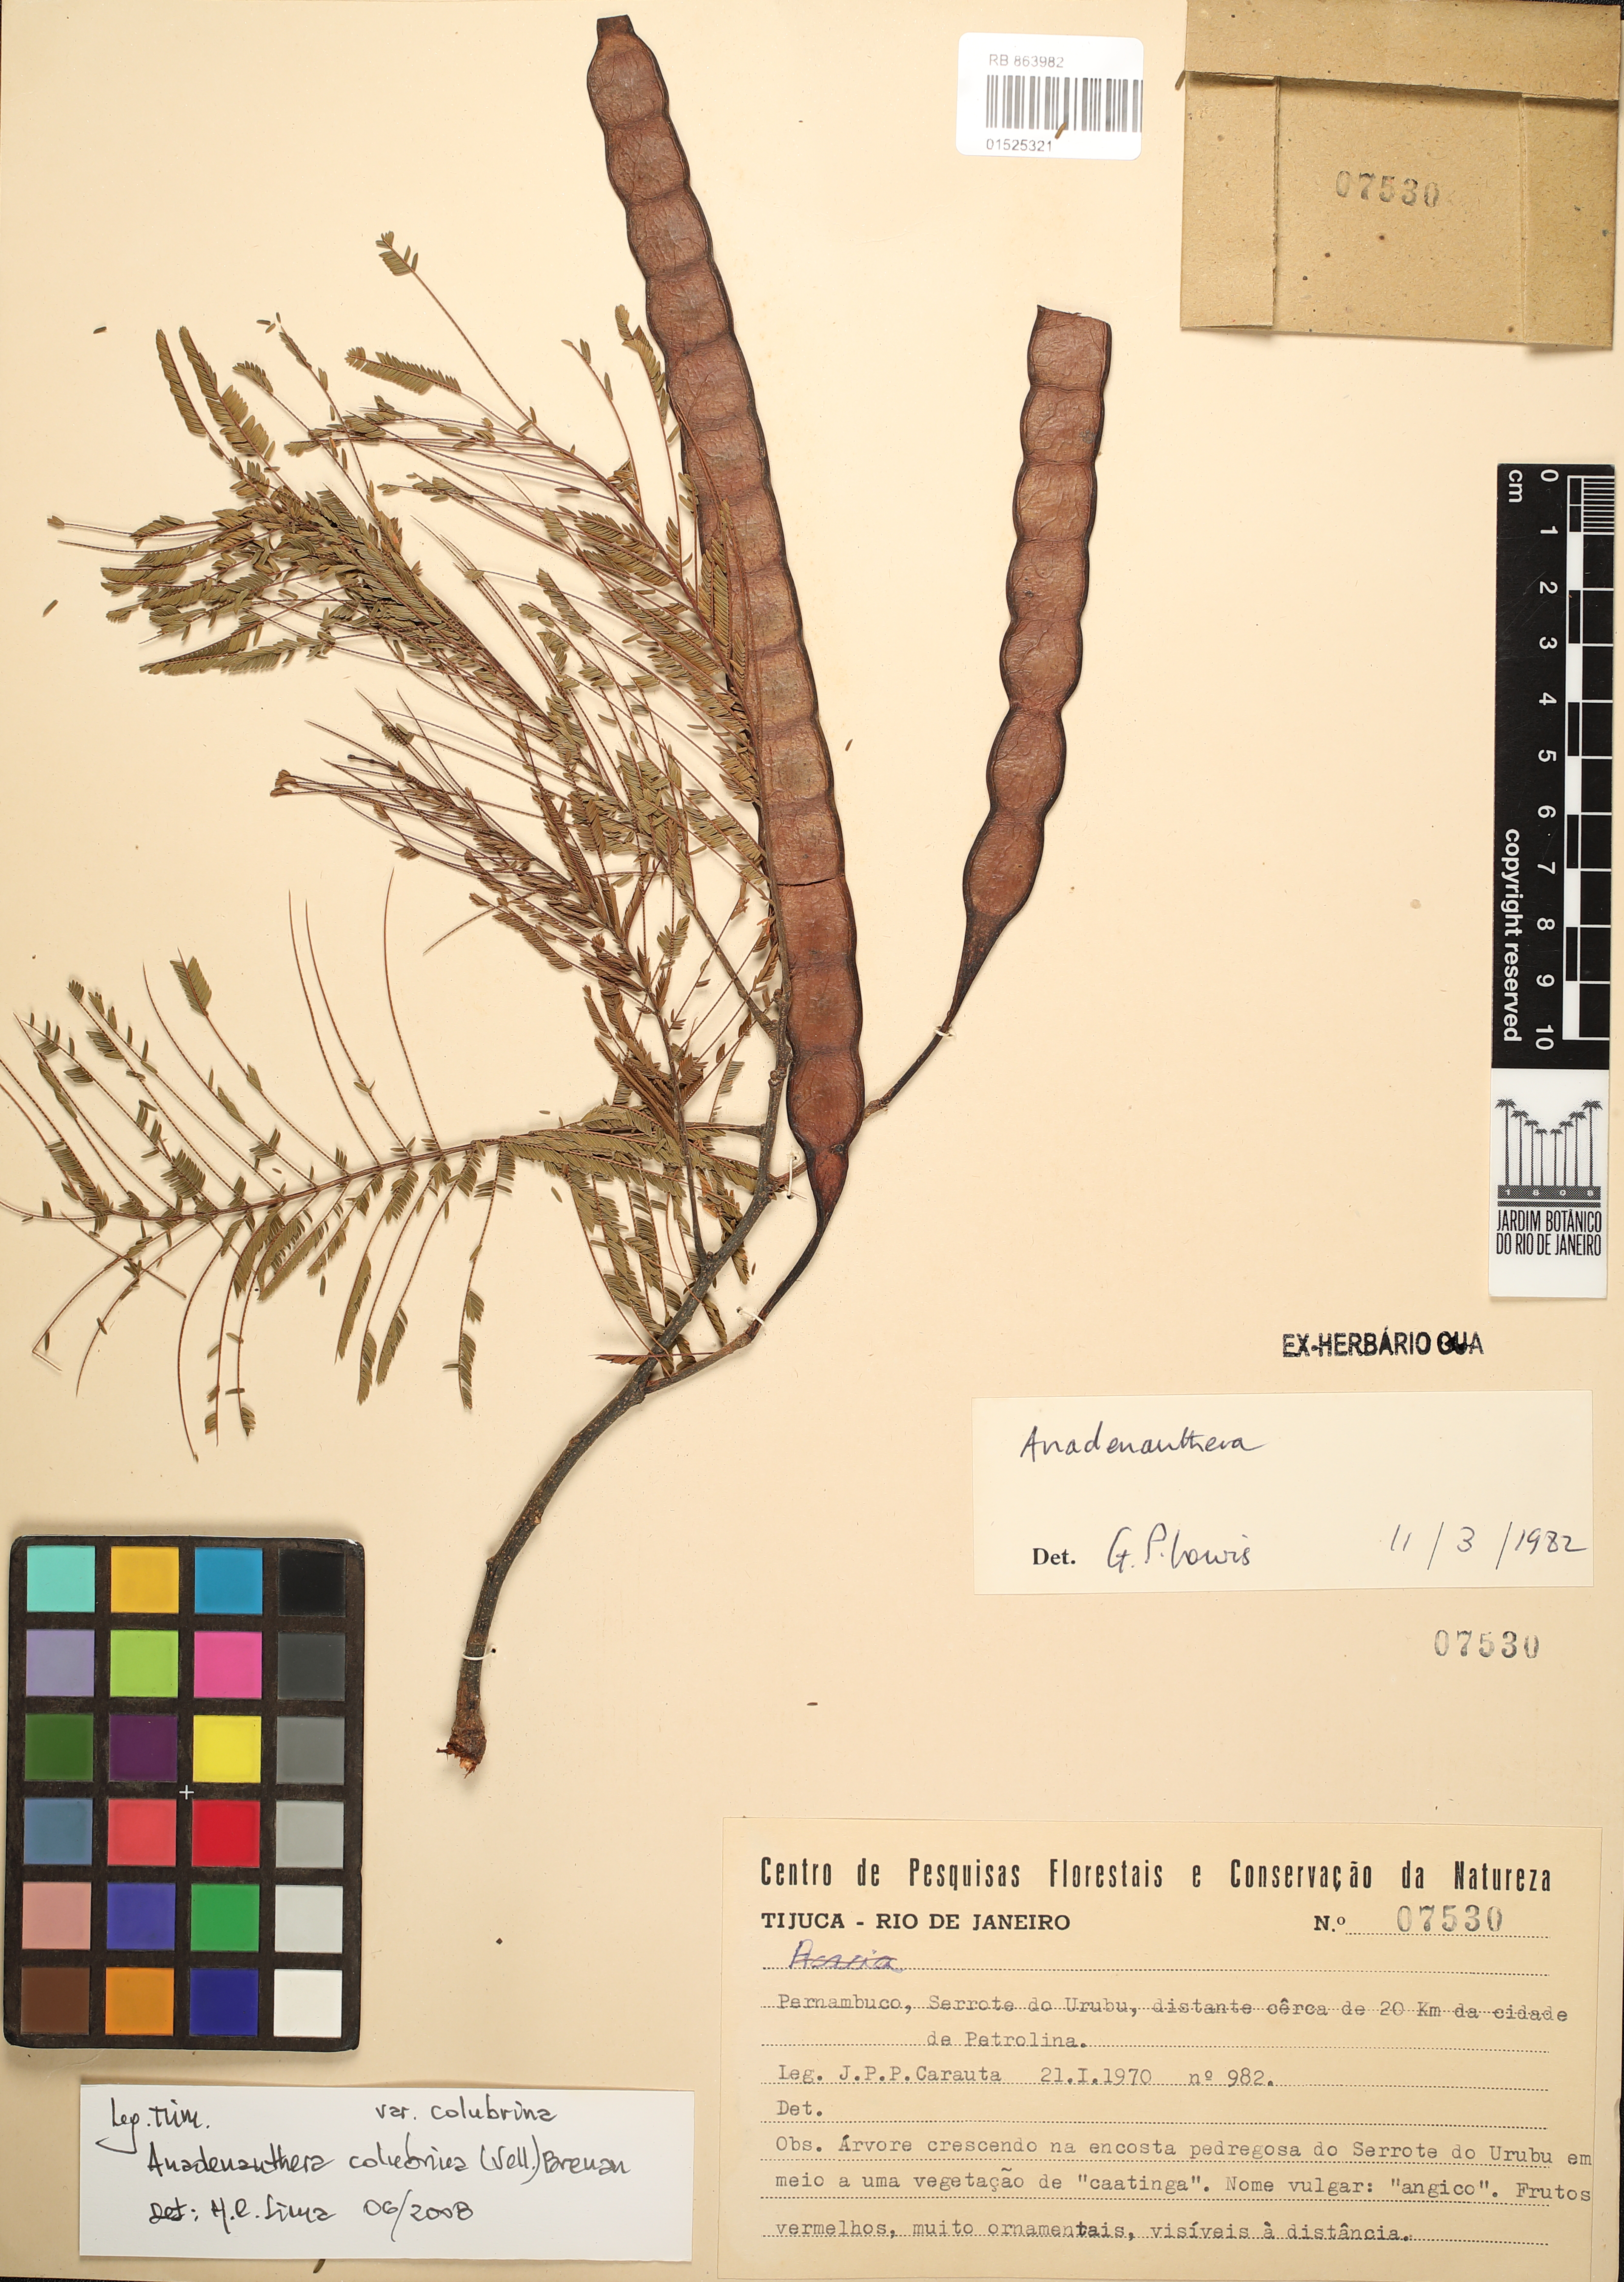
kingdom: Plantae
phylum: Tracheophyta
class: Magnoliopsida
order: Fabales
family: Fabaceae
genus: Anadenanthera
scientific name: Anadenanthera colubrina
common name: Curupay
